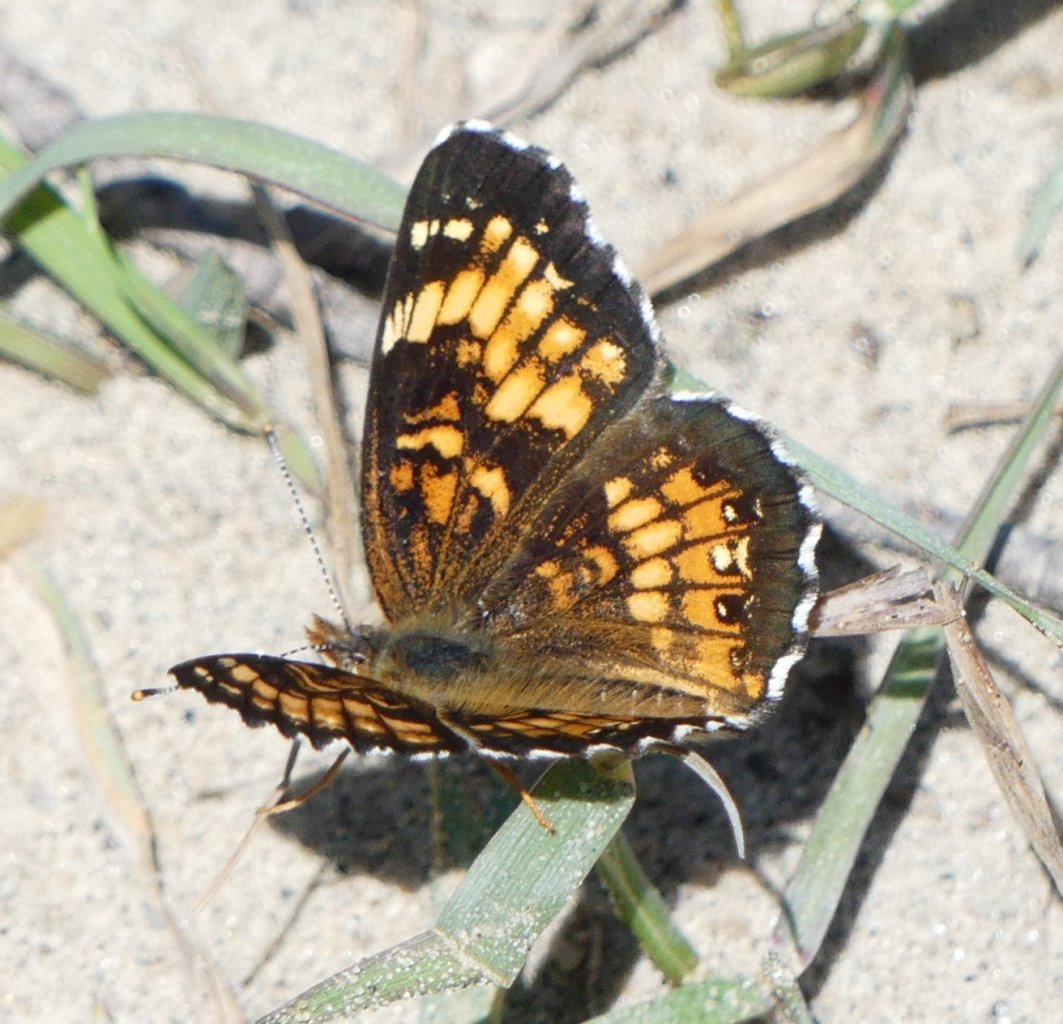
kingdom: Animalia
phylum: Arthropoda
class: Insecta
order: Lepidoptera
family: Nymphalidae
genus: Chlosyne
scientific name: Chlosyne harrisii
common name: Harris's Checkerspot
